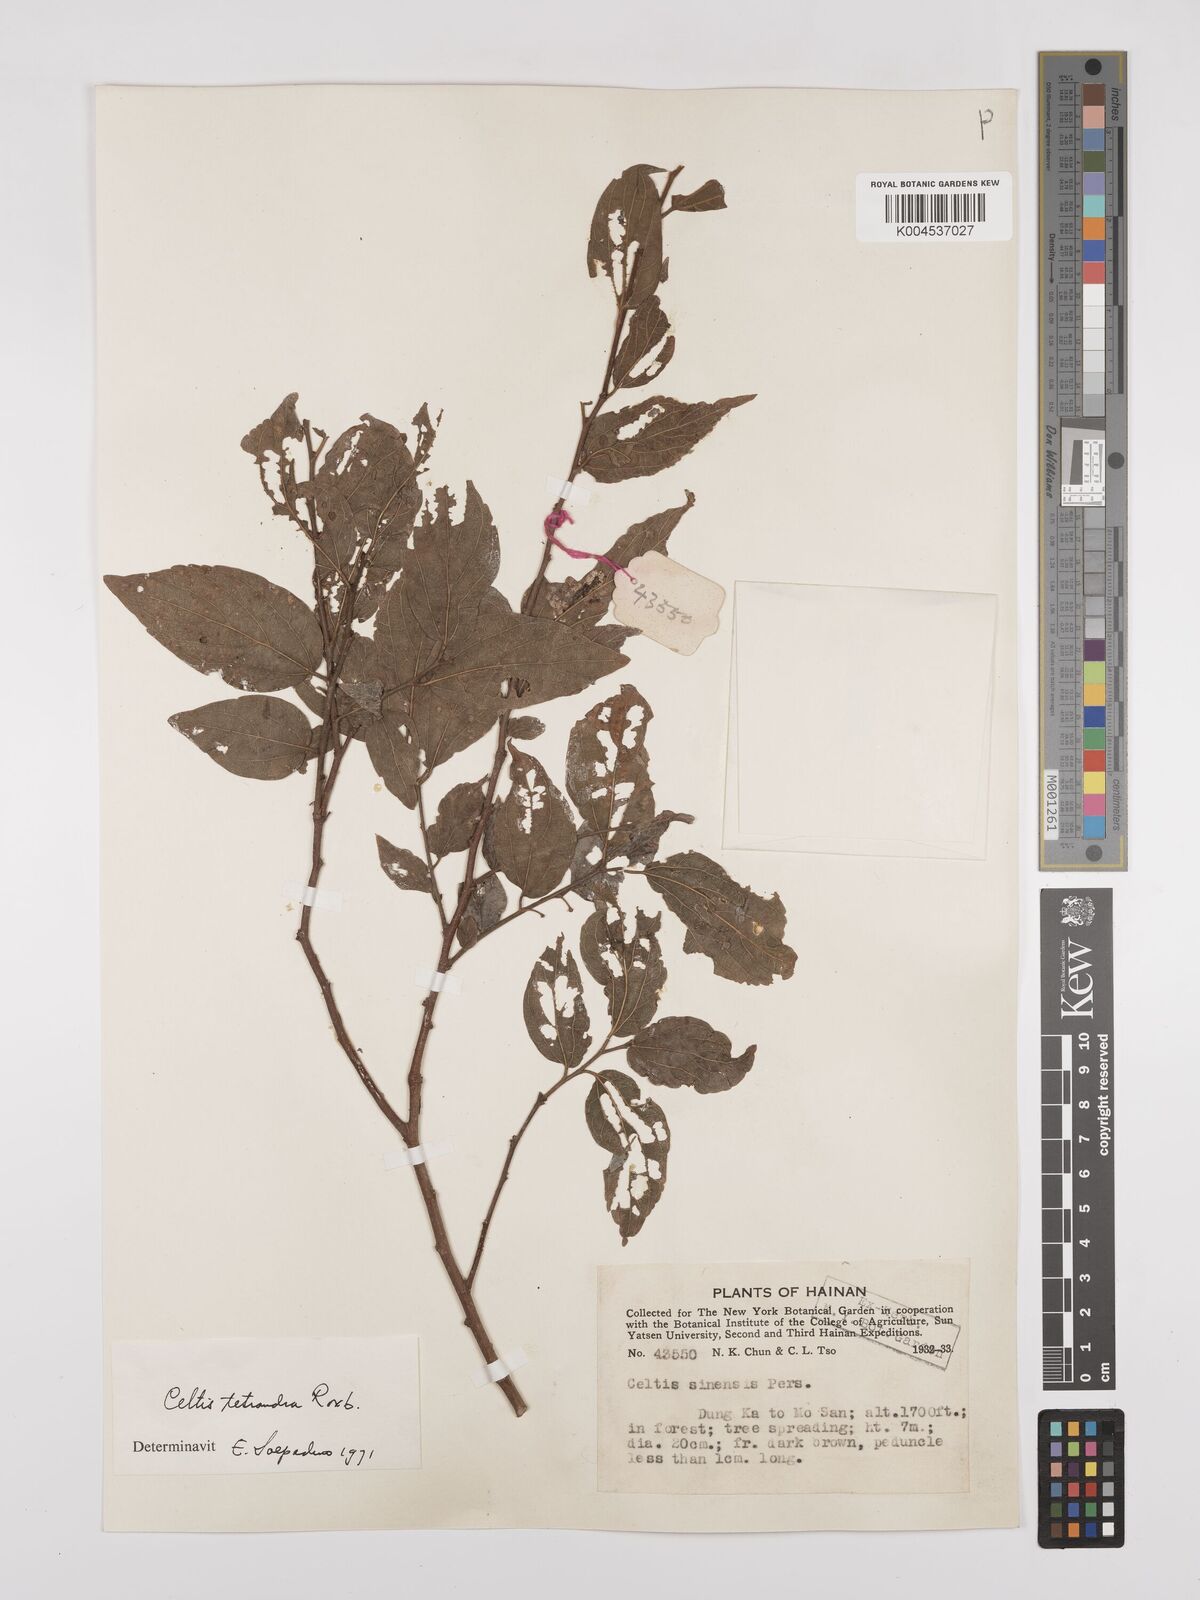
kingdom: Plantae
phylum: Tracheophyta
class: Magnoliopsida
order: Rosales
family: Cannabaceae
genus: Celtis
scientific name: Celtis tetrandra
